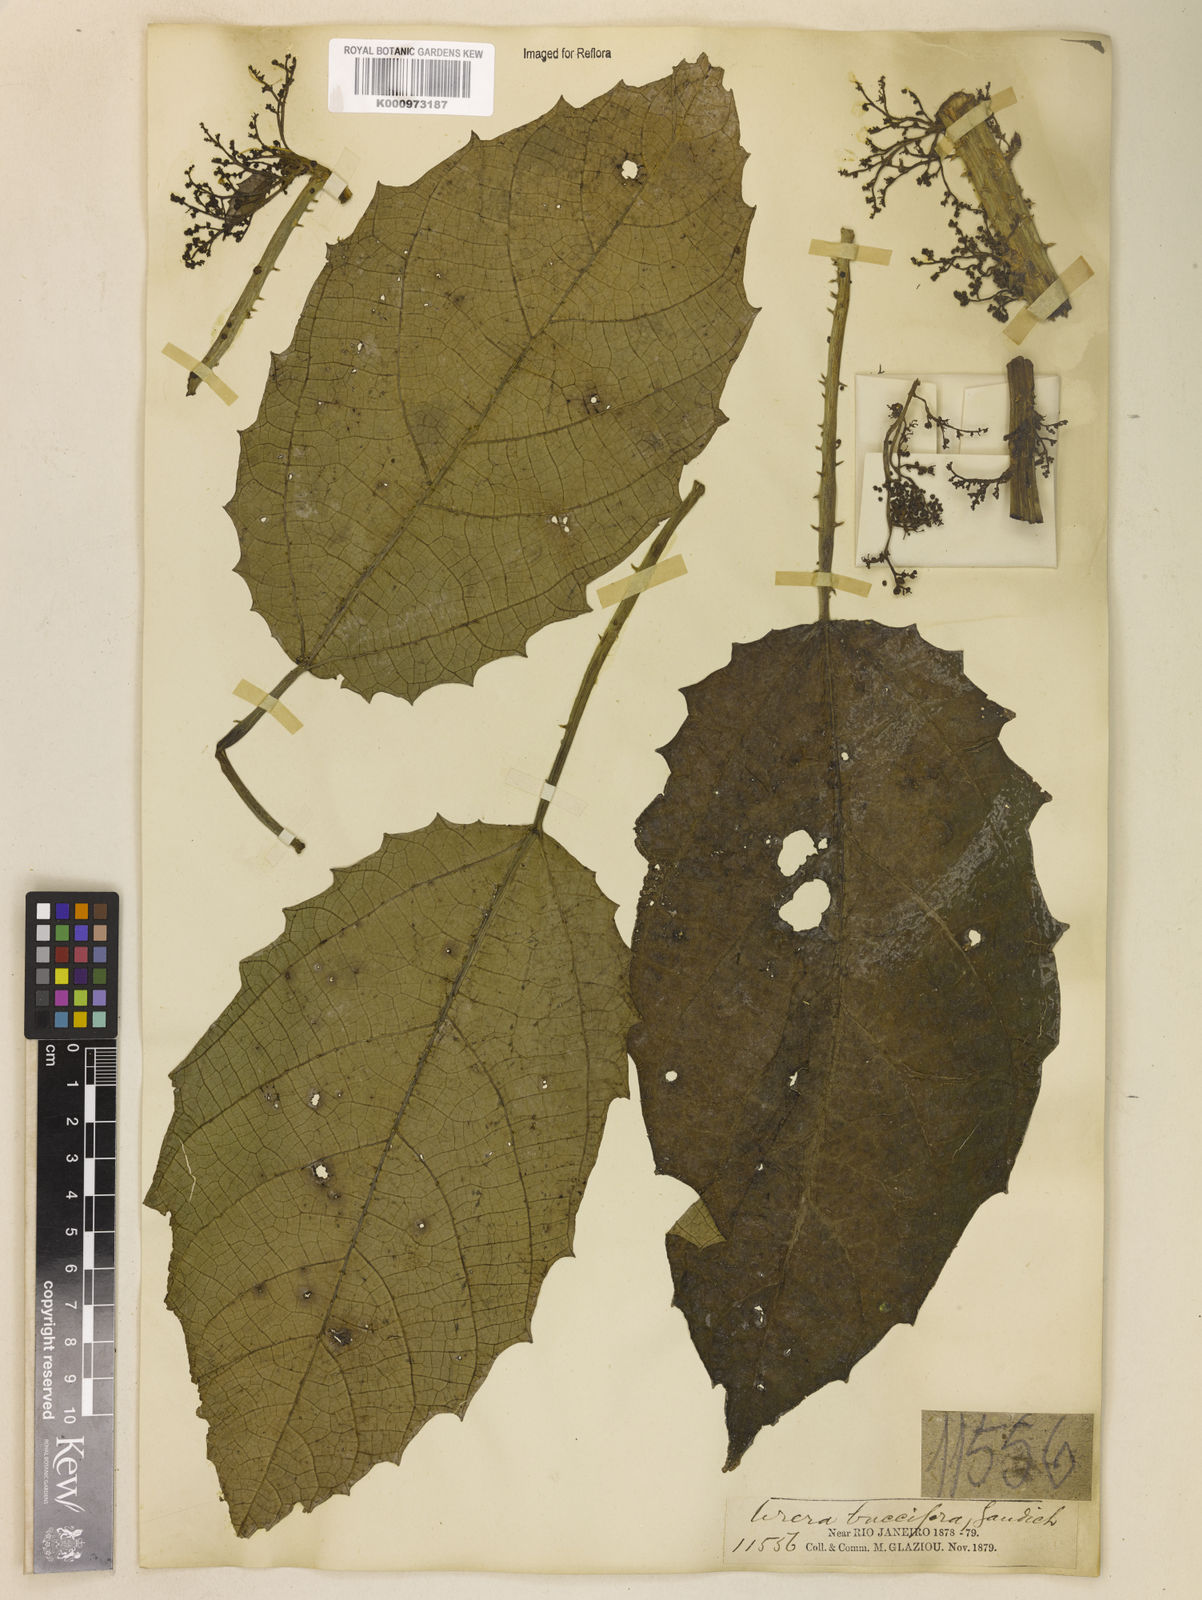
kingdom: Plantae
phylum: Tracheophyta
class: Magnoliopsida
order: Rosales
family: Urticaceae
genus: Urera
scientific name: Urera baccifera
